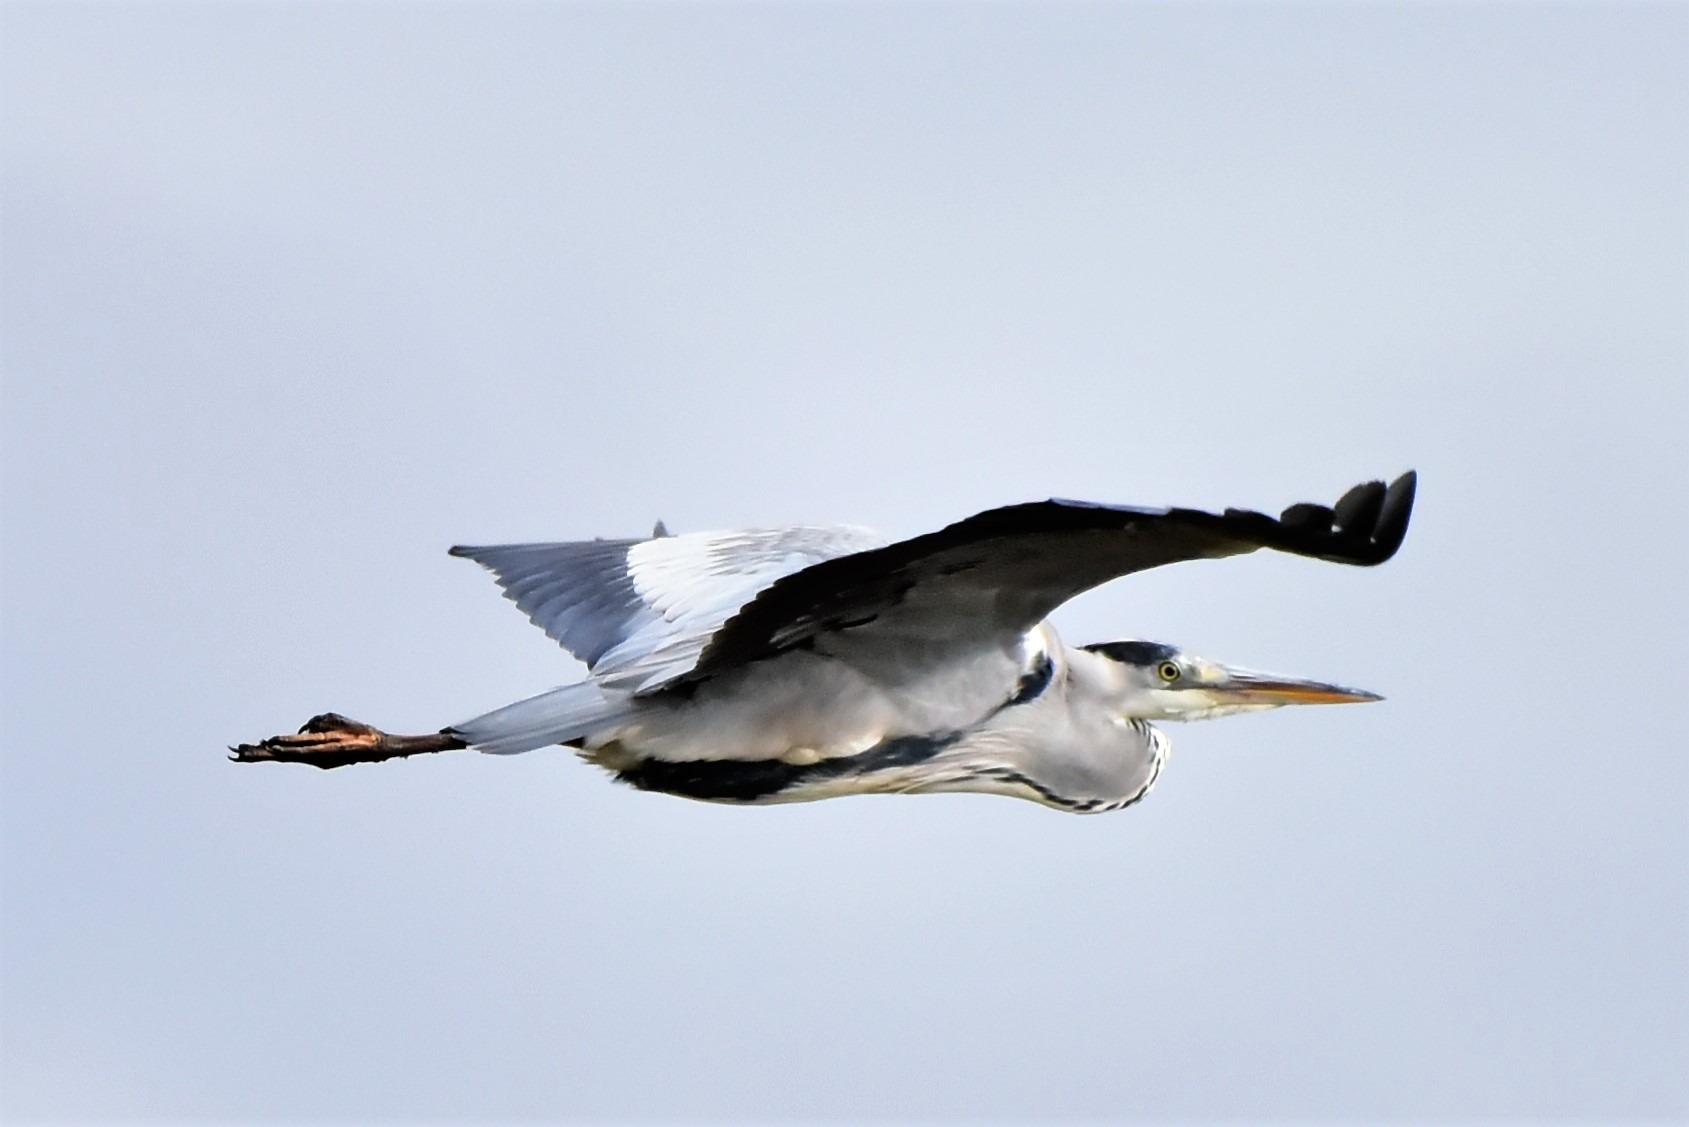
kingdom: Animalia
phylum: Chordata
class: Aves
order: Pelecaniformes
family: Ardeidae
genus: Ardea
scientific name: Ardea cinerea
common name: Fiskehejre
